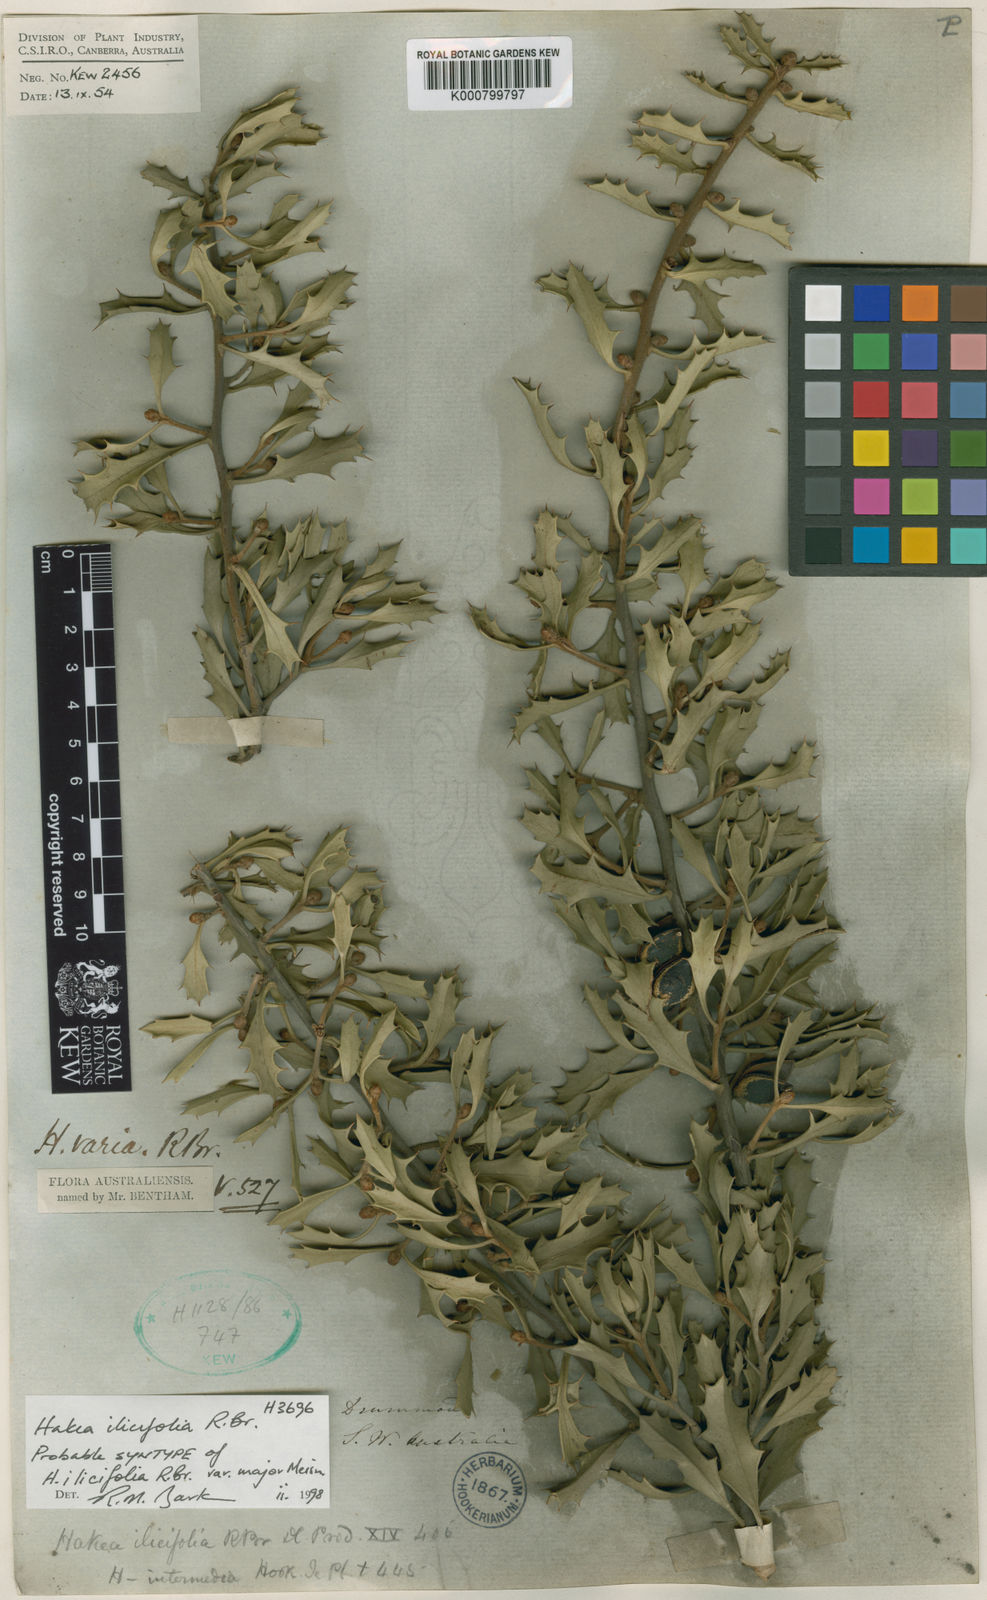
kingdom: Plantae
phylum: Tracheophyta
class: Magnoliopsida
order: Proteales
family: Proteaceae
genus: Hakea
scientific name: Hakea varia
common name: Variable-leaf hakea
